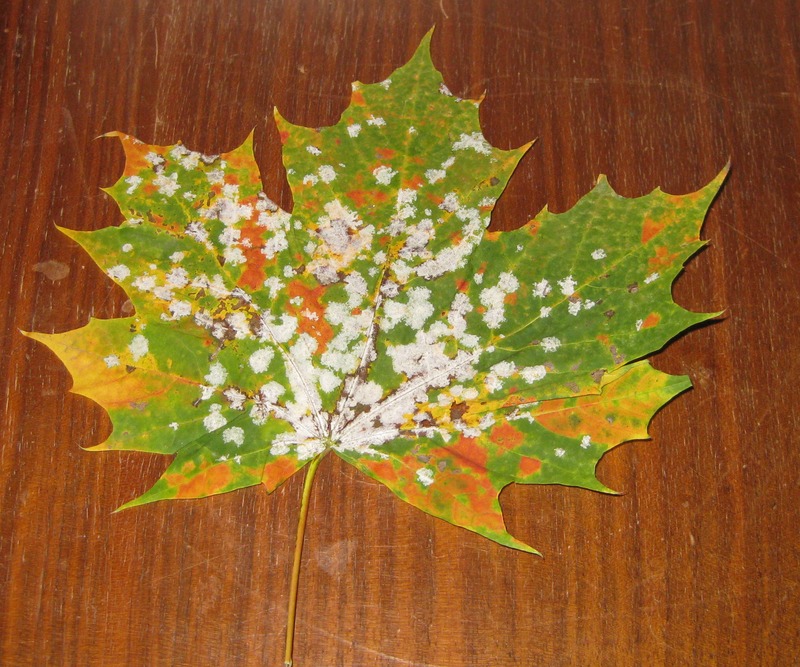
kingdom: Fungi
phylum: Ascomycota
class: Leotiomycetes
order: Helotiales
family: Erysiphaceae
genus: Sawadaea
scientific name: Sawadaea tulasnei
